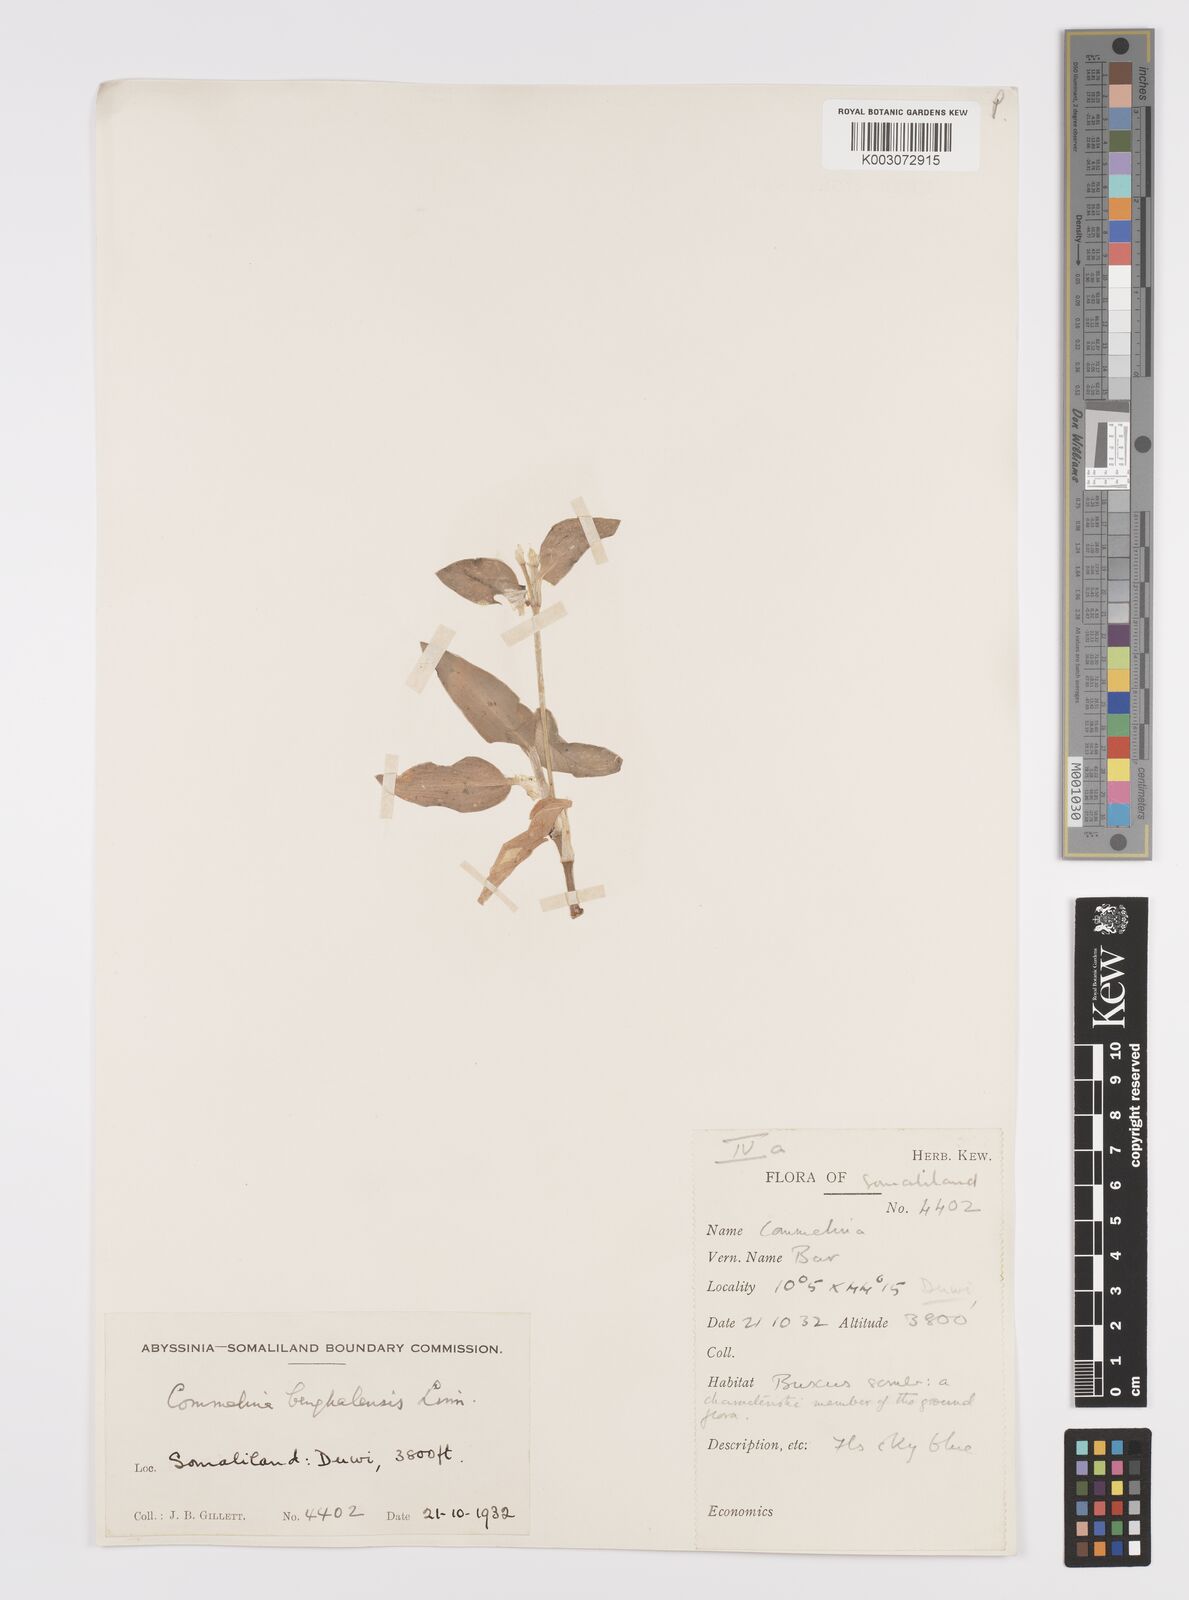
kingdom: Plantae
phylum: Tracheophyta
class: Liliopsida
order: Commelinales
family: Commelinaceae
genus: Commelina
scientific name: Commelina benghalensis
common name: Jio
